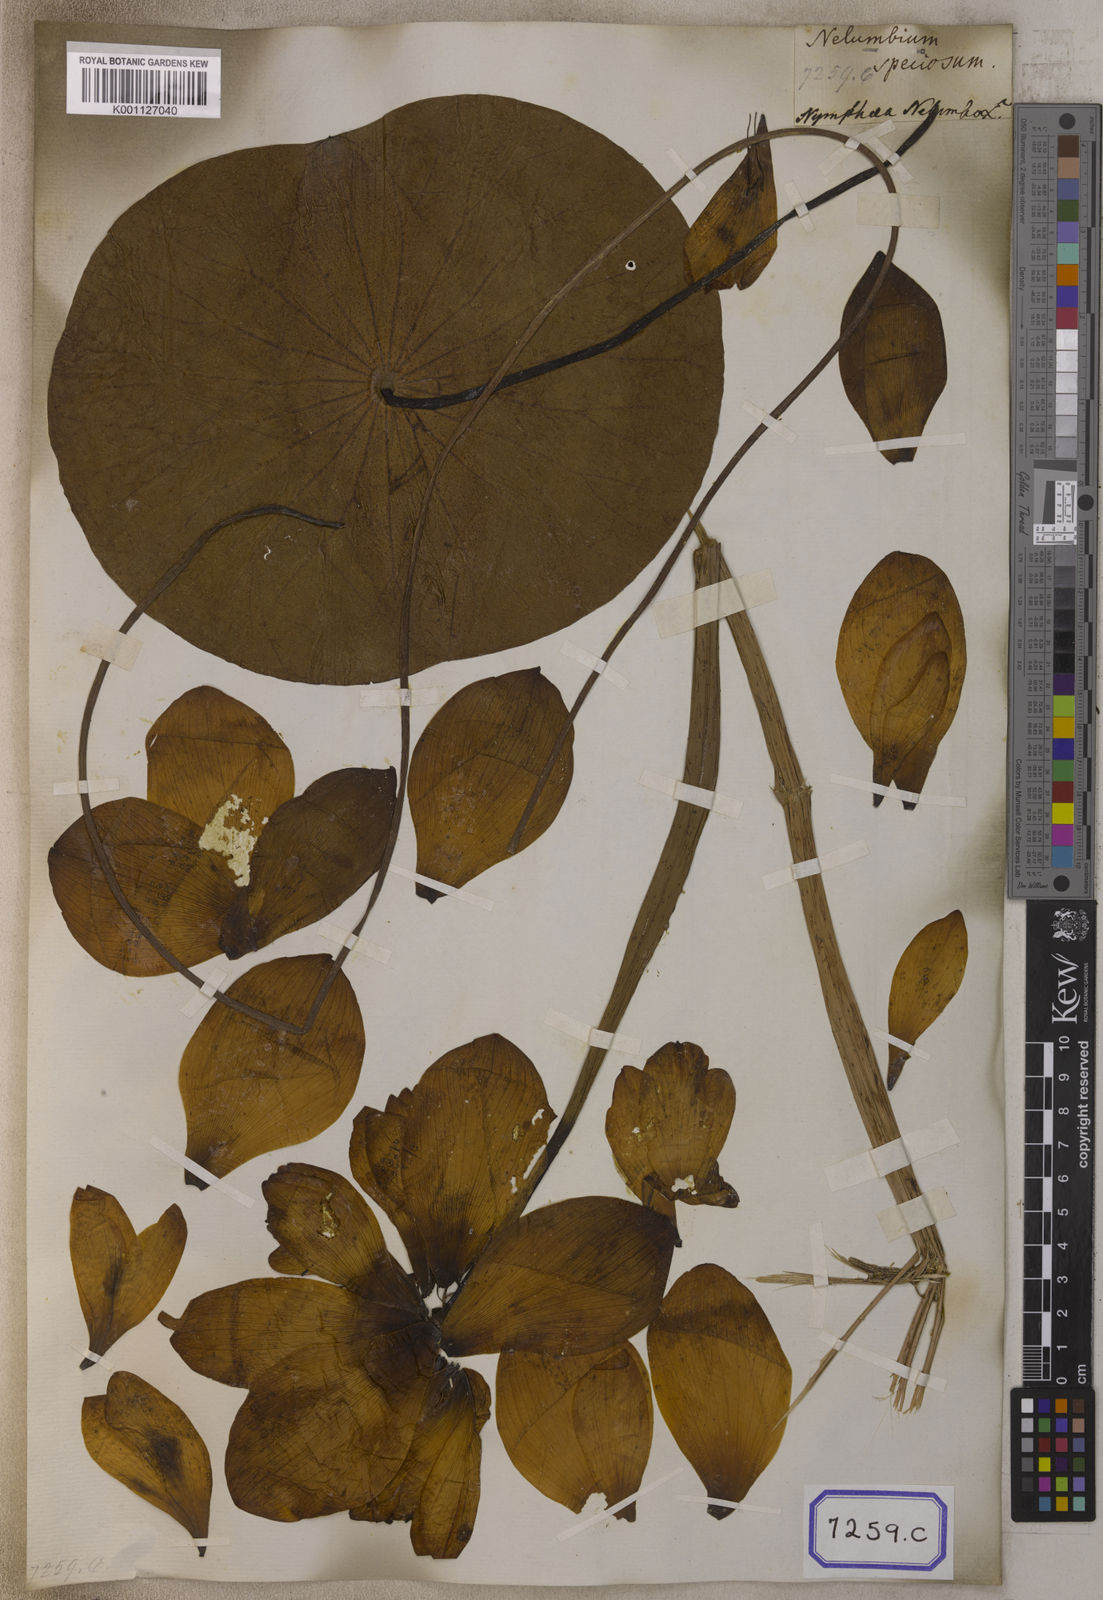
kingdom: Plantae
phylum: Tracheophyta
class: Magnoliopsida
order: Proteales
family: Nelumbonaceae
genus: Nelumbo
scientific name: Nelumbo nucifera
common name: Sacred lotus
